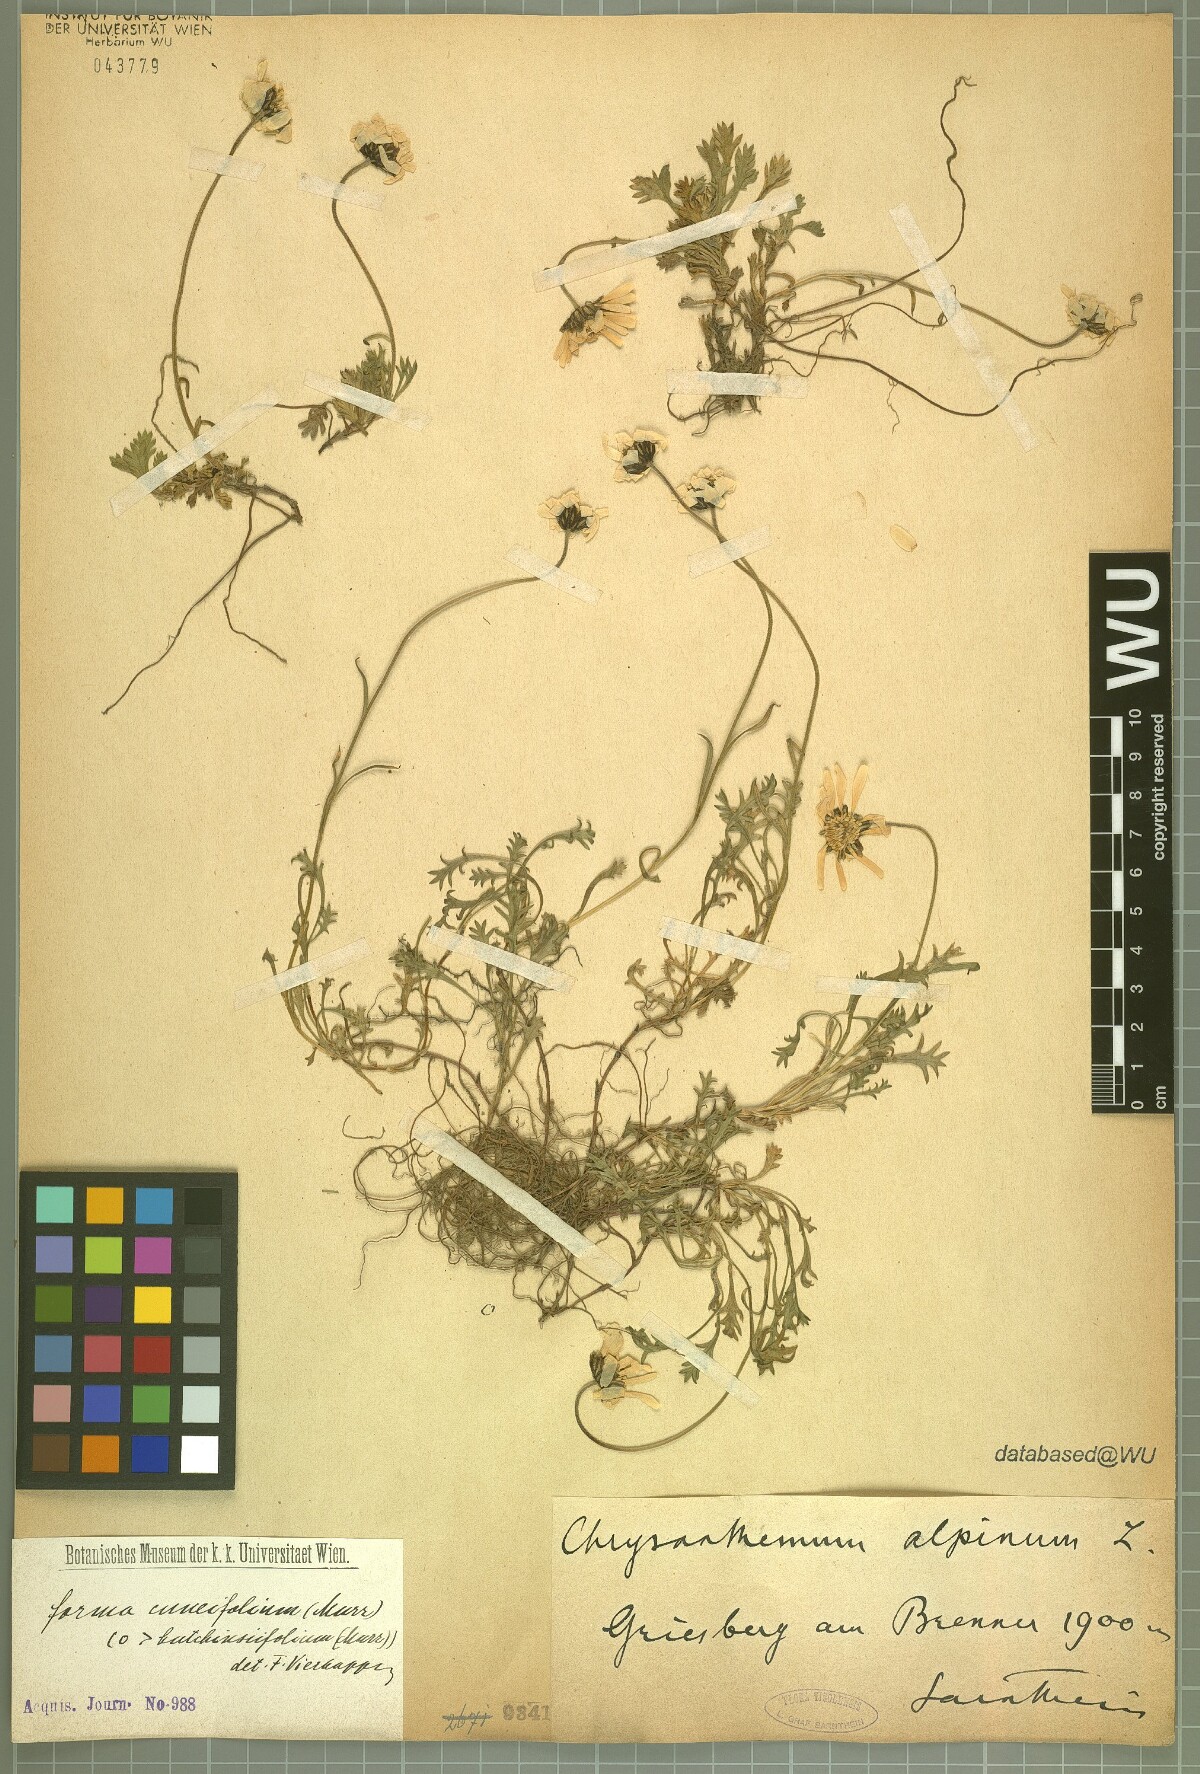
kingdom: Plantae
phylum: Tracheophyta
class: Magnoliopsida
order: Asterales
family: Asteraceae
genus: Leucanthemopsis
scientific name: Leucanthemopsis alpina
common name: Alpine moon daisy
